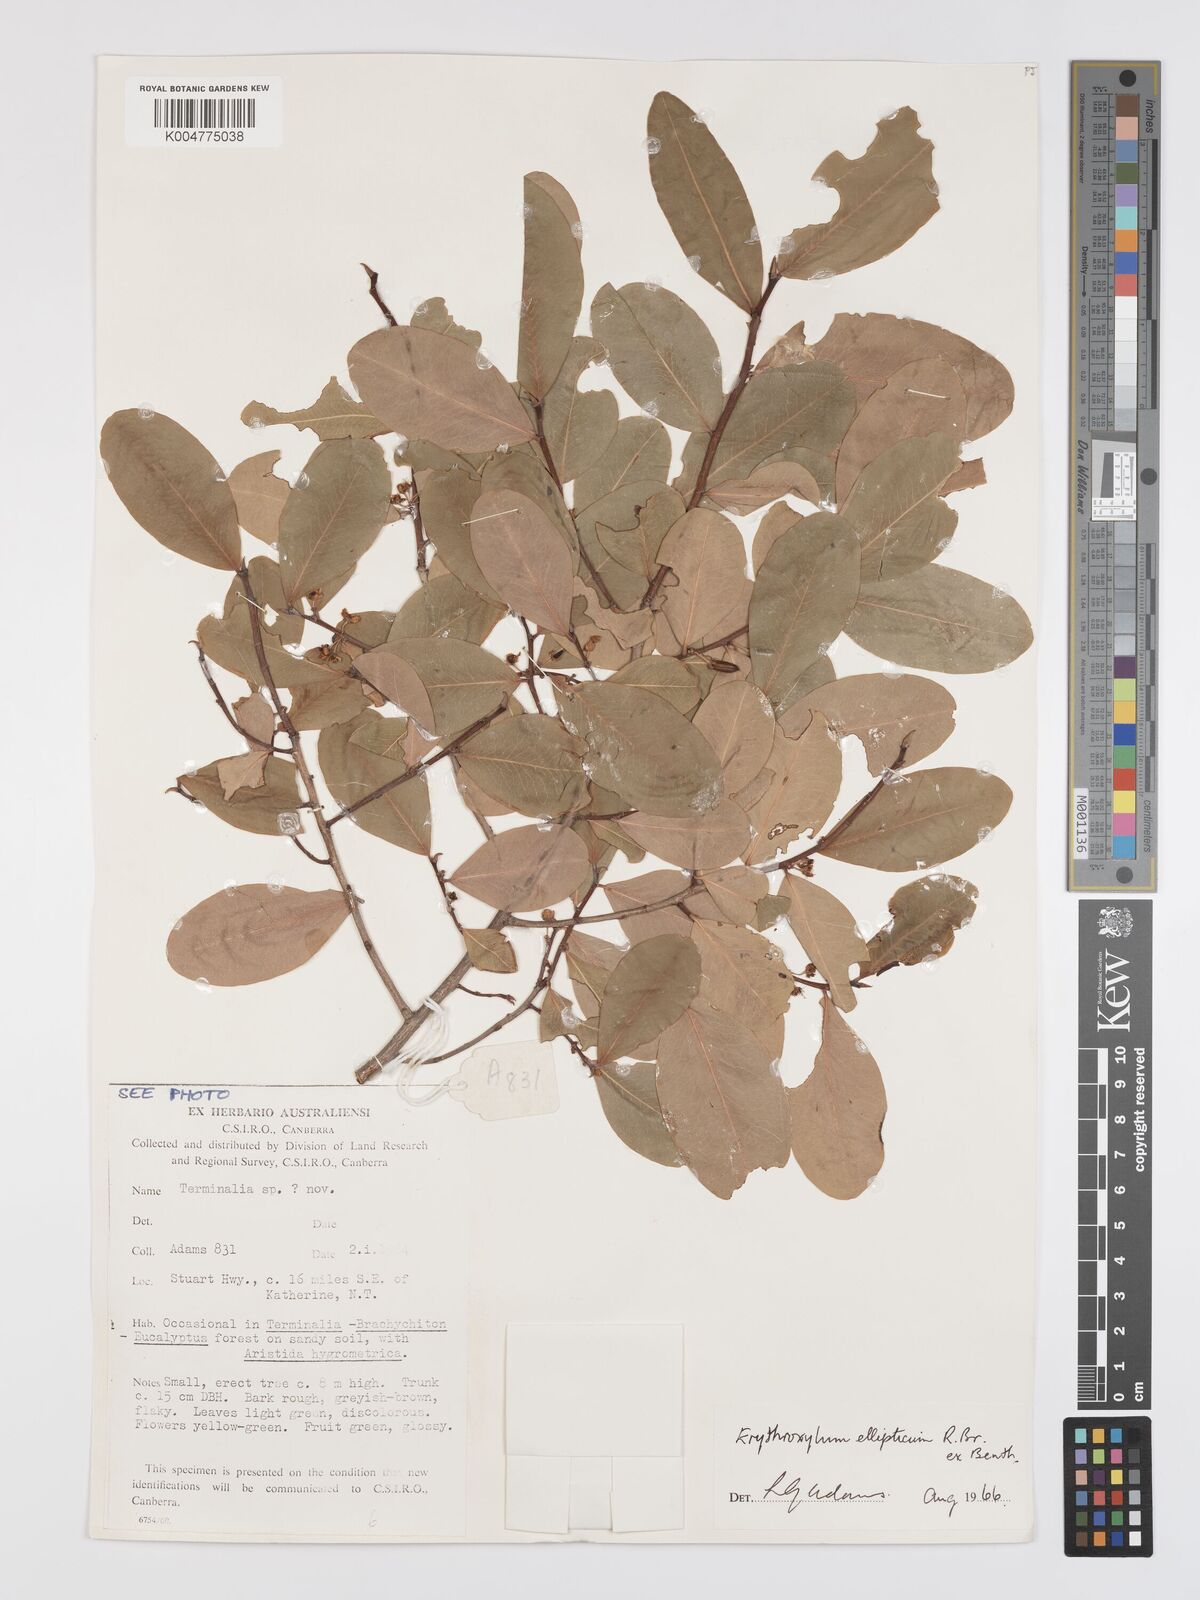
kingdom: Plantae
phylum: Tracheophyta
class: Magnoliopsida
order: Malpighiales
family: Erythroxylaceae
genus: Erythroxylum
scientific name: Erythroxylum
